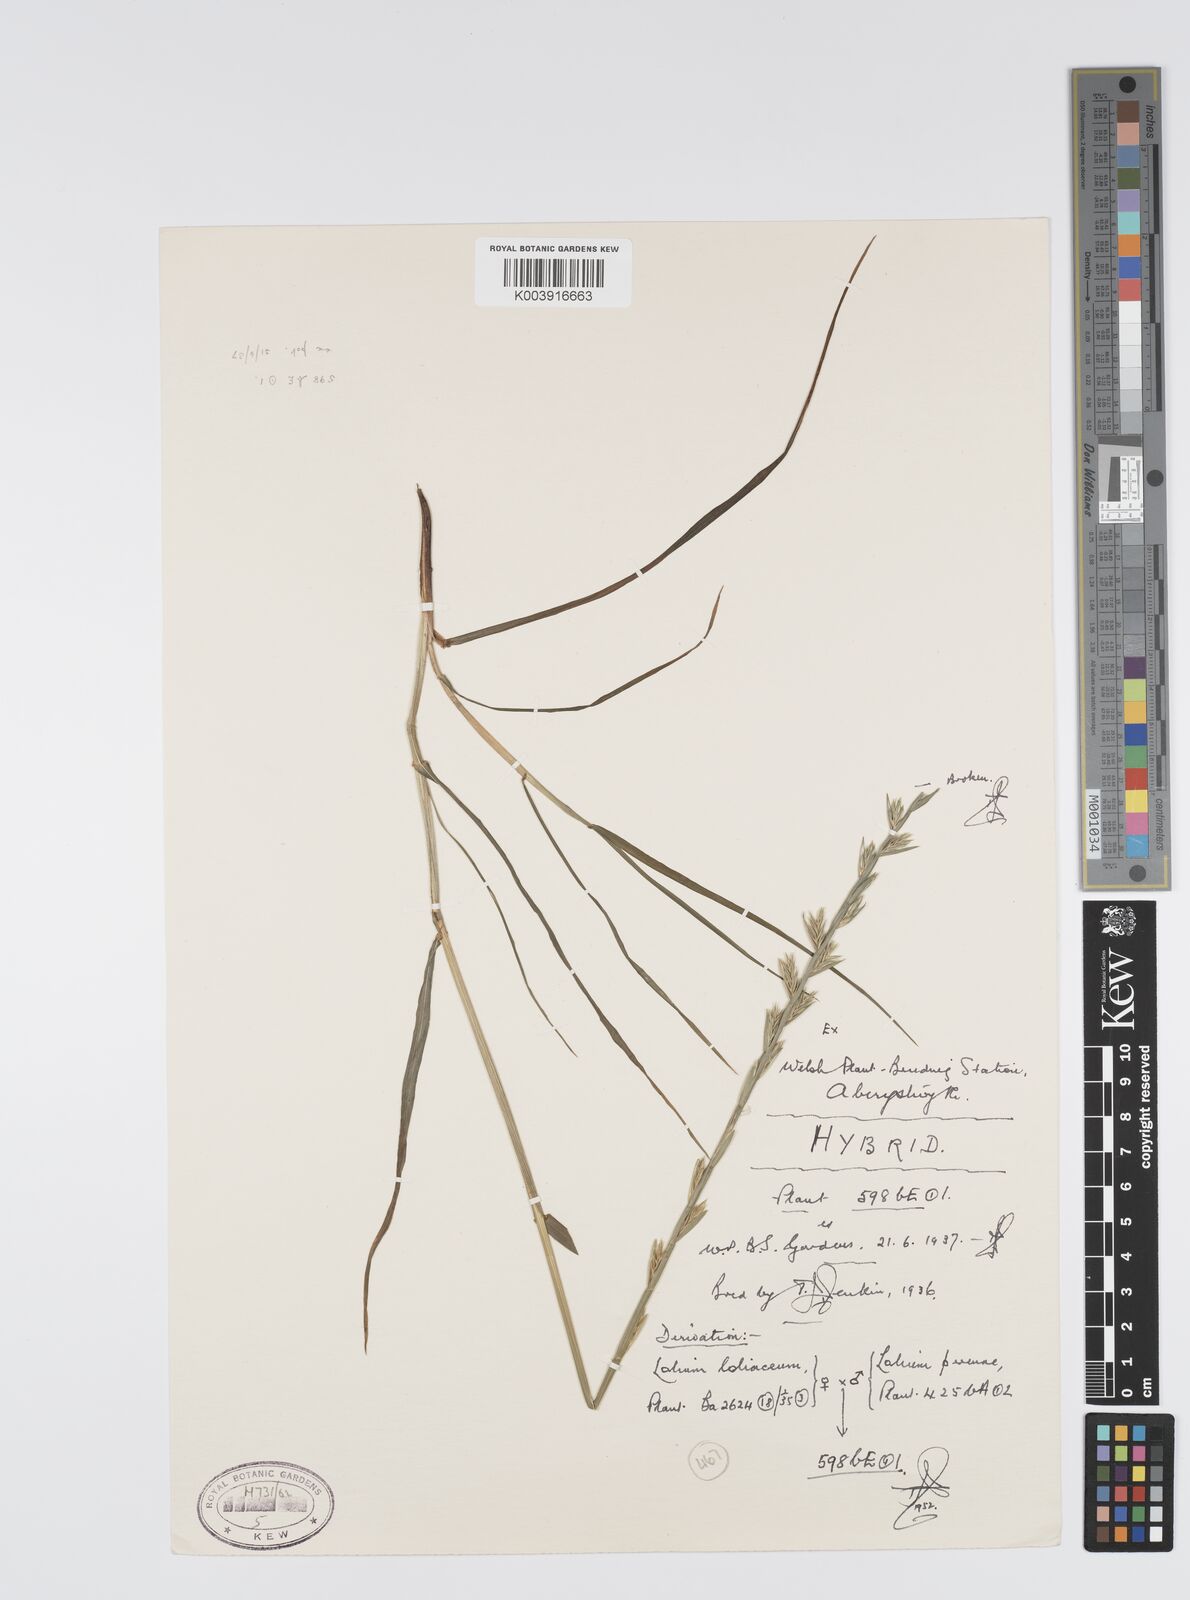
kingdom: Plantae
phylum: Tracheophyta
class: Liliopsida
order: Poales
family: Poaceae
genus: Lolium
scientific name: Lolium perenne
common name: Perennial ryegrass
